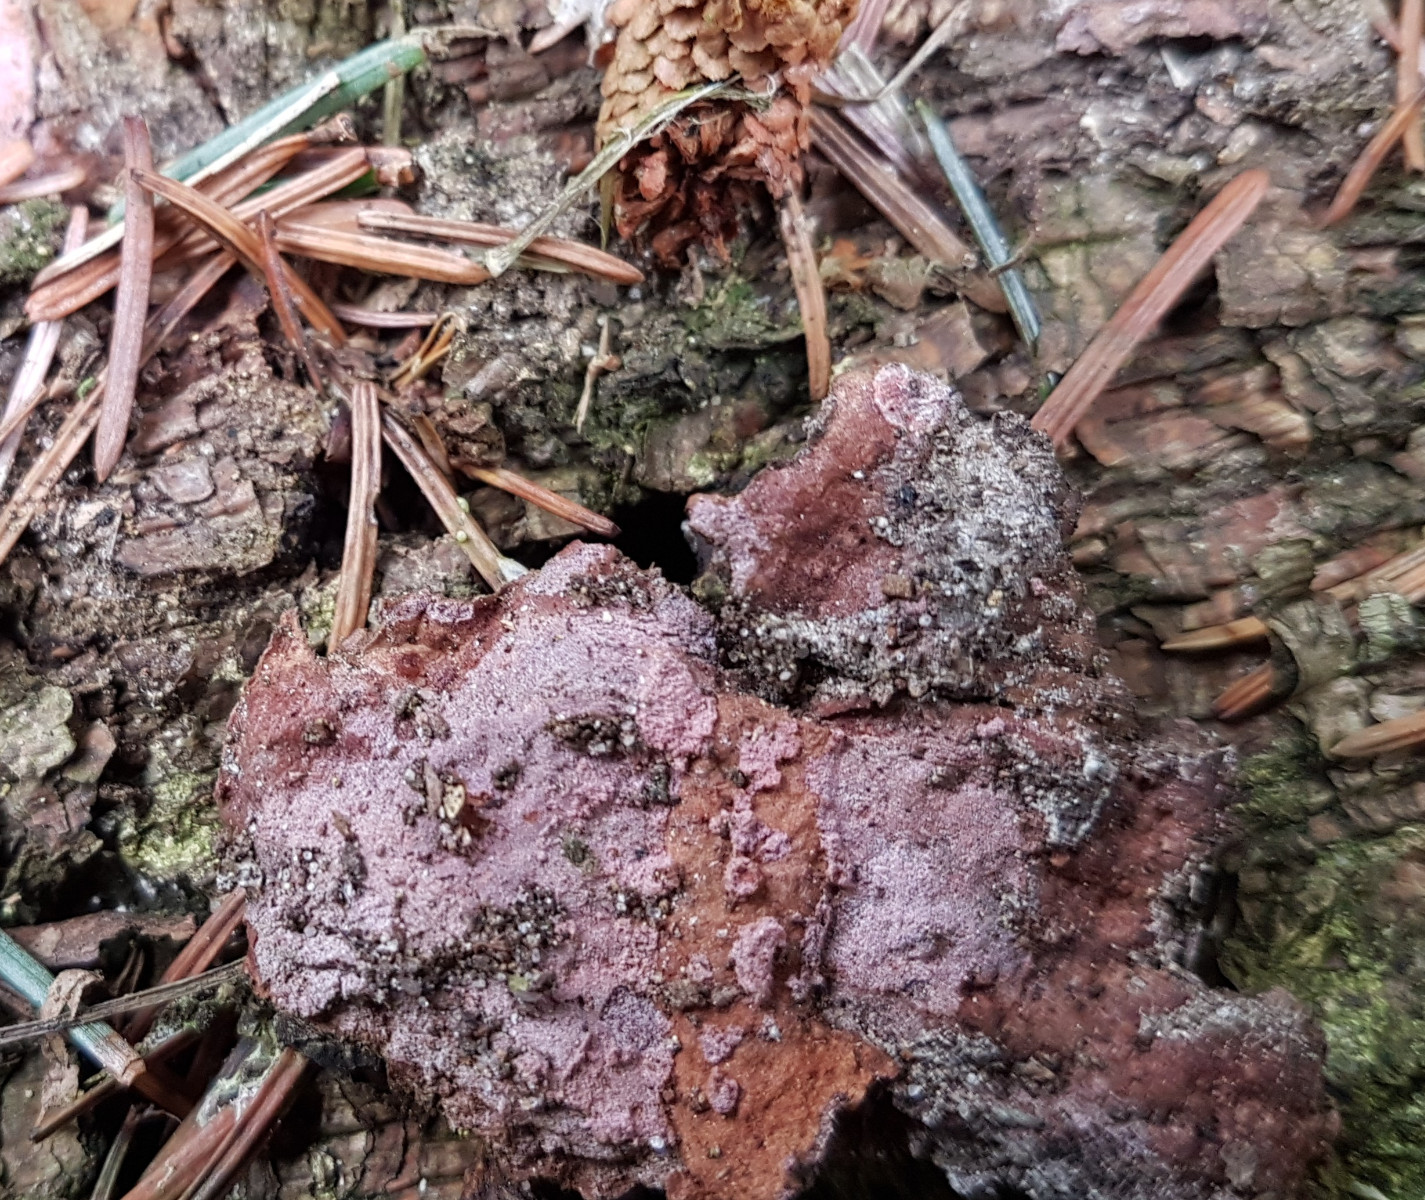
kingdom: Fungi
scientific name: Fungi
